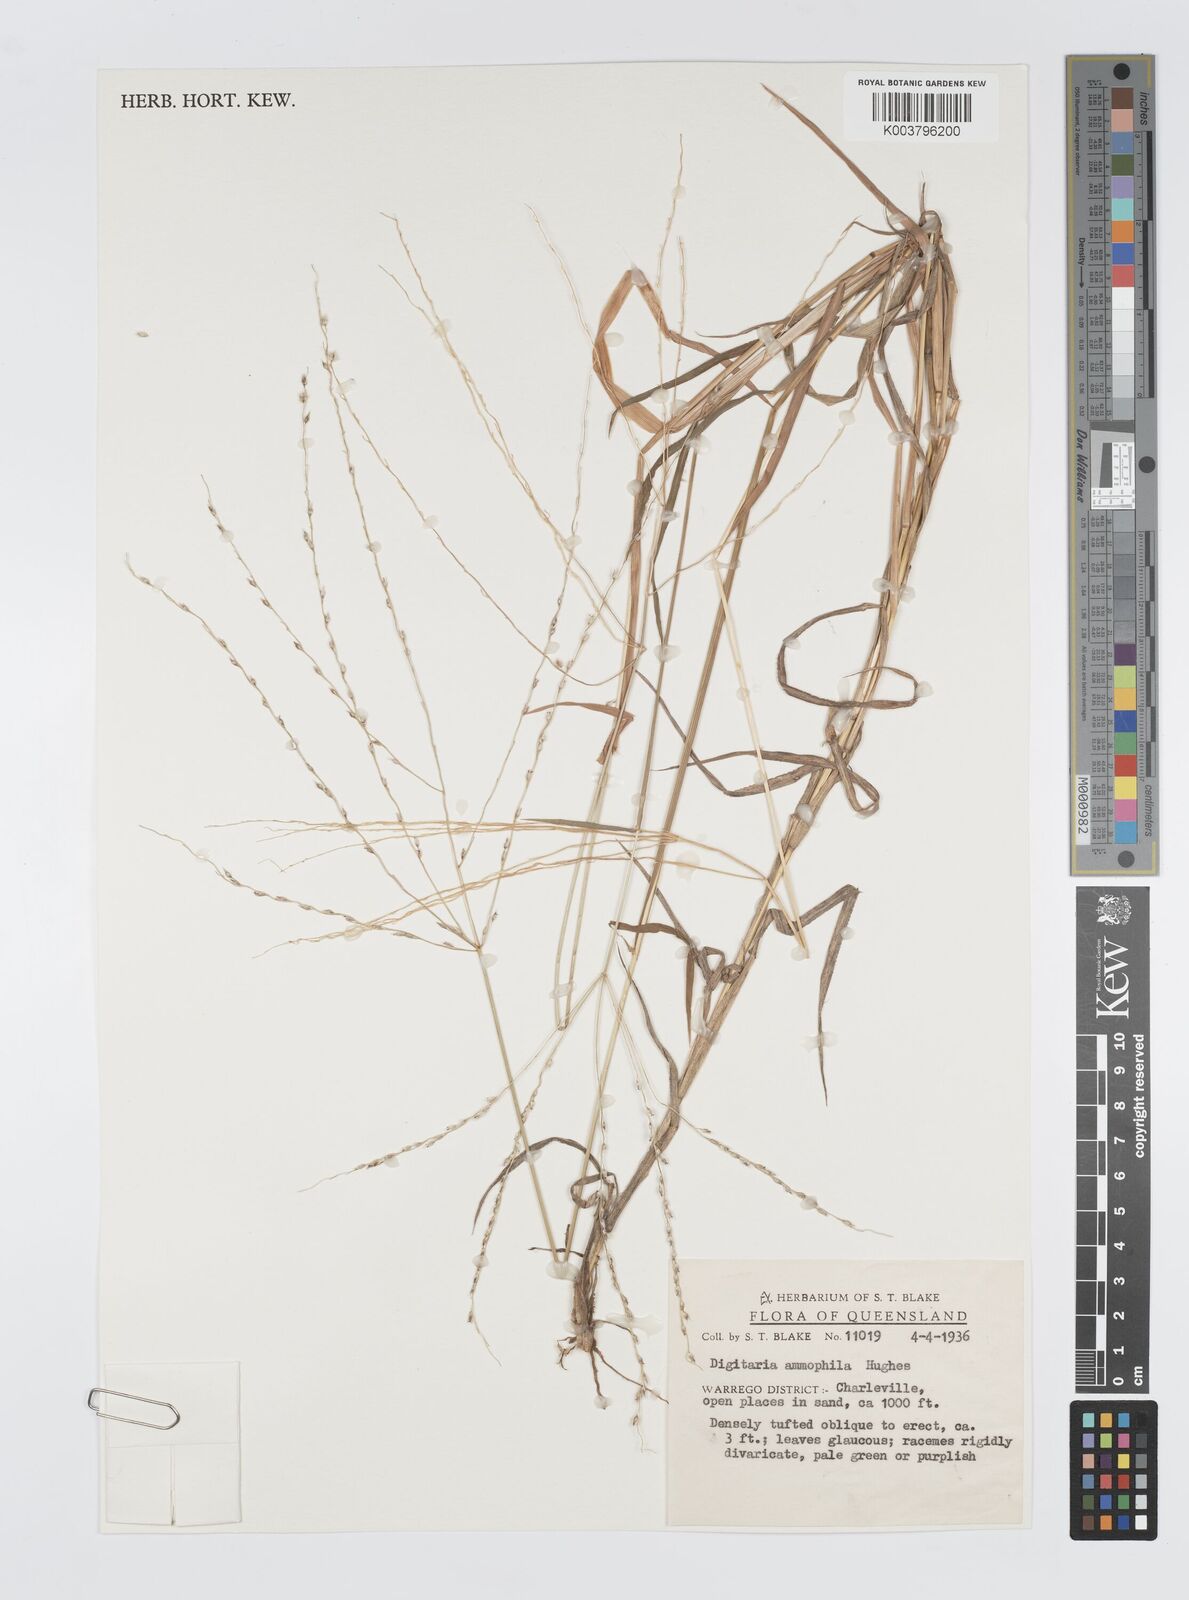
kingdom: Plantae
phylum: Tracheophyta
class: Liliopsida
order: Poales
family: Poaceae
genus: Digitaria
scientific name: Digitaria ammophila
